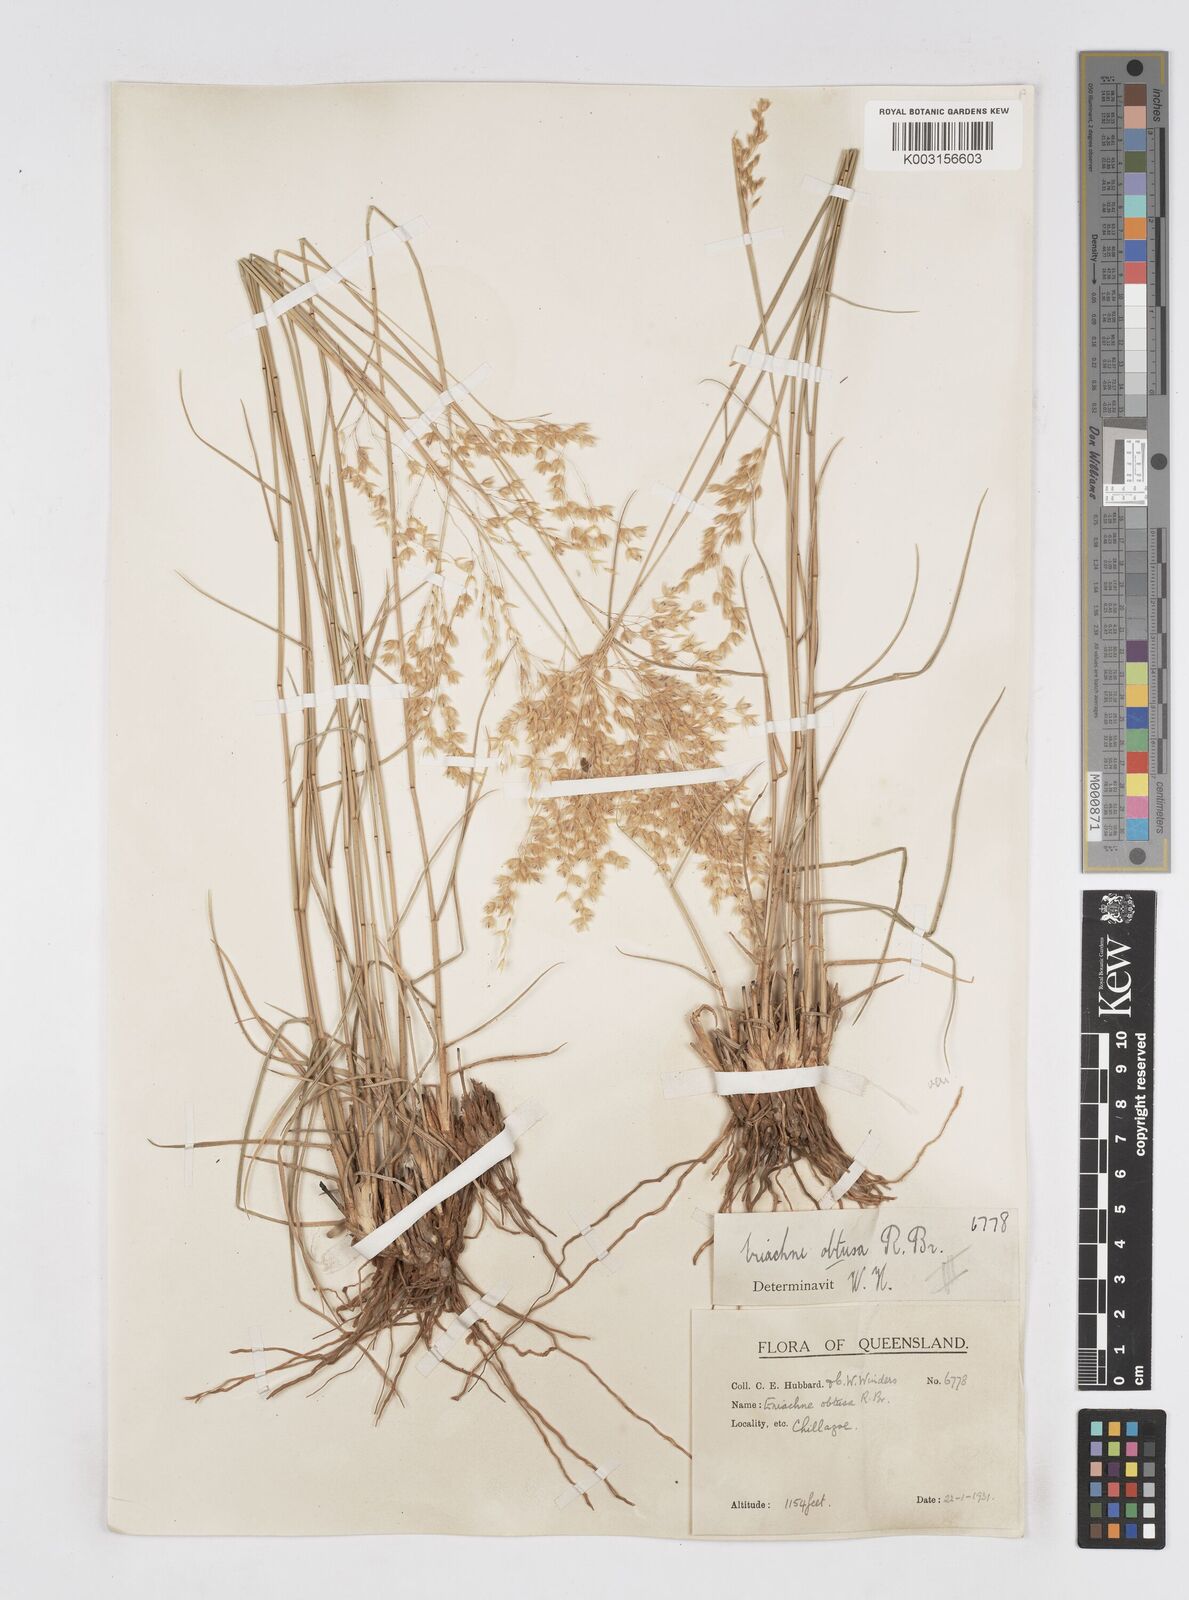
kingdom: Plantae
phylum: Tracheophyta
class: Liliopsida
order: Poales
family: Poaceae
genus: Eriachne
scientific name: Eriachne obtusa
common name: Northern wanderrie grass
